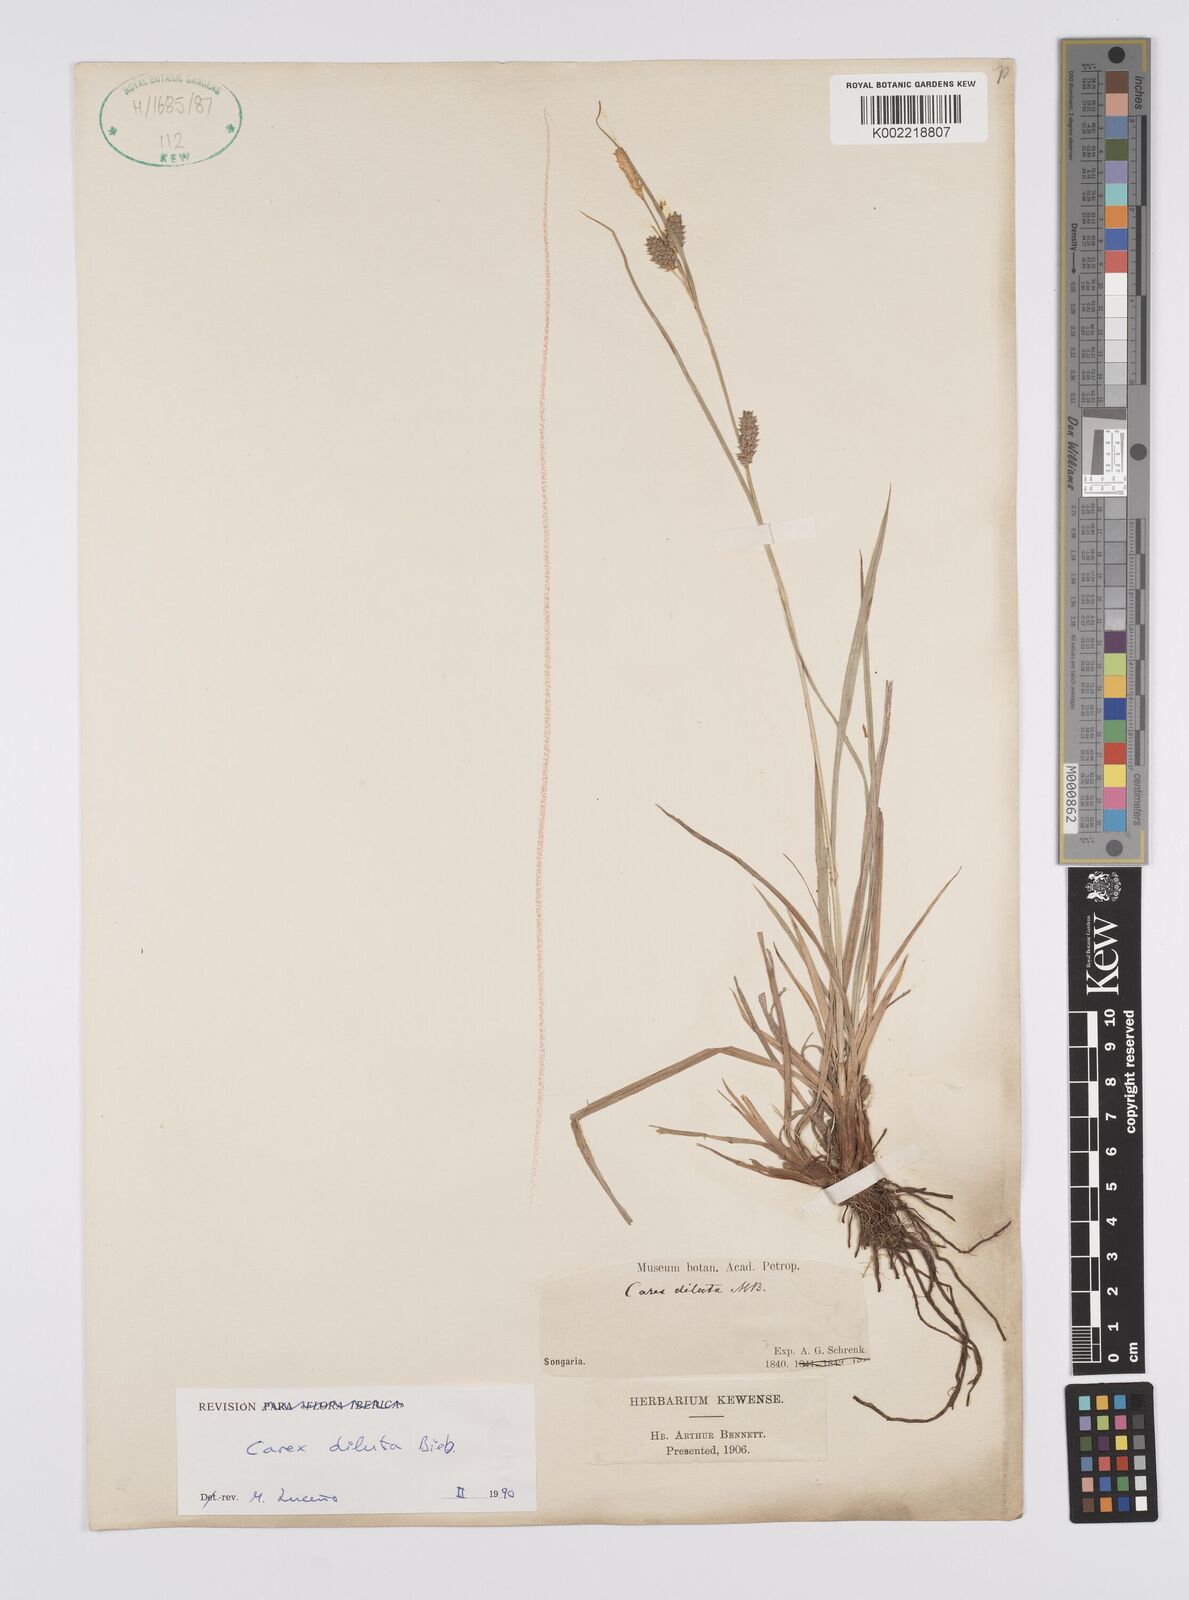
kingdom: Plantae
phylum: Tracheophyta
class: Liliopsida
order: Poales
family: Cyperaceae
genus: Carex
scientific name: Carex diluta
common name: Sedge
